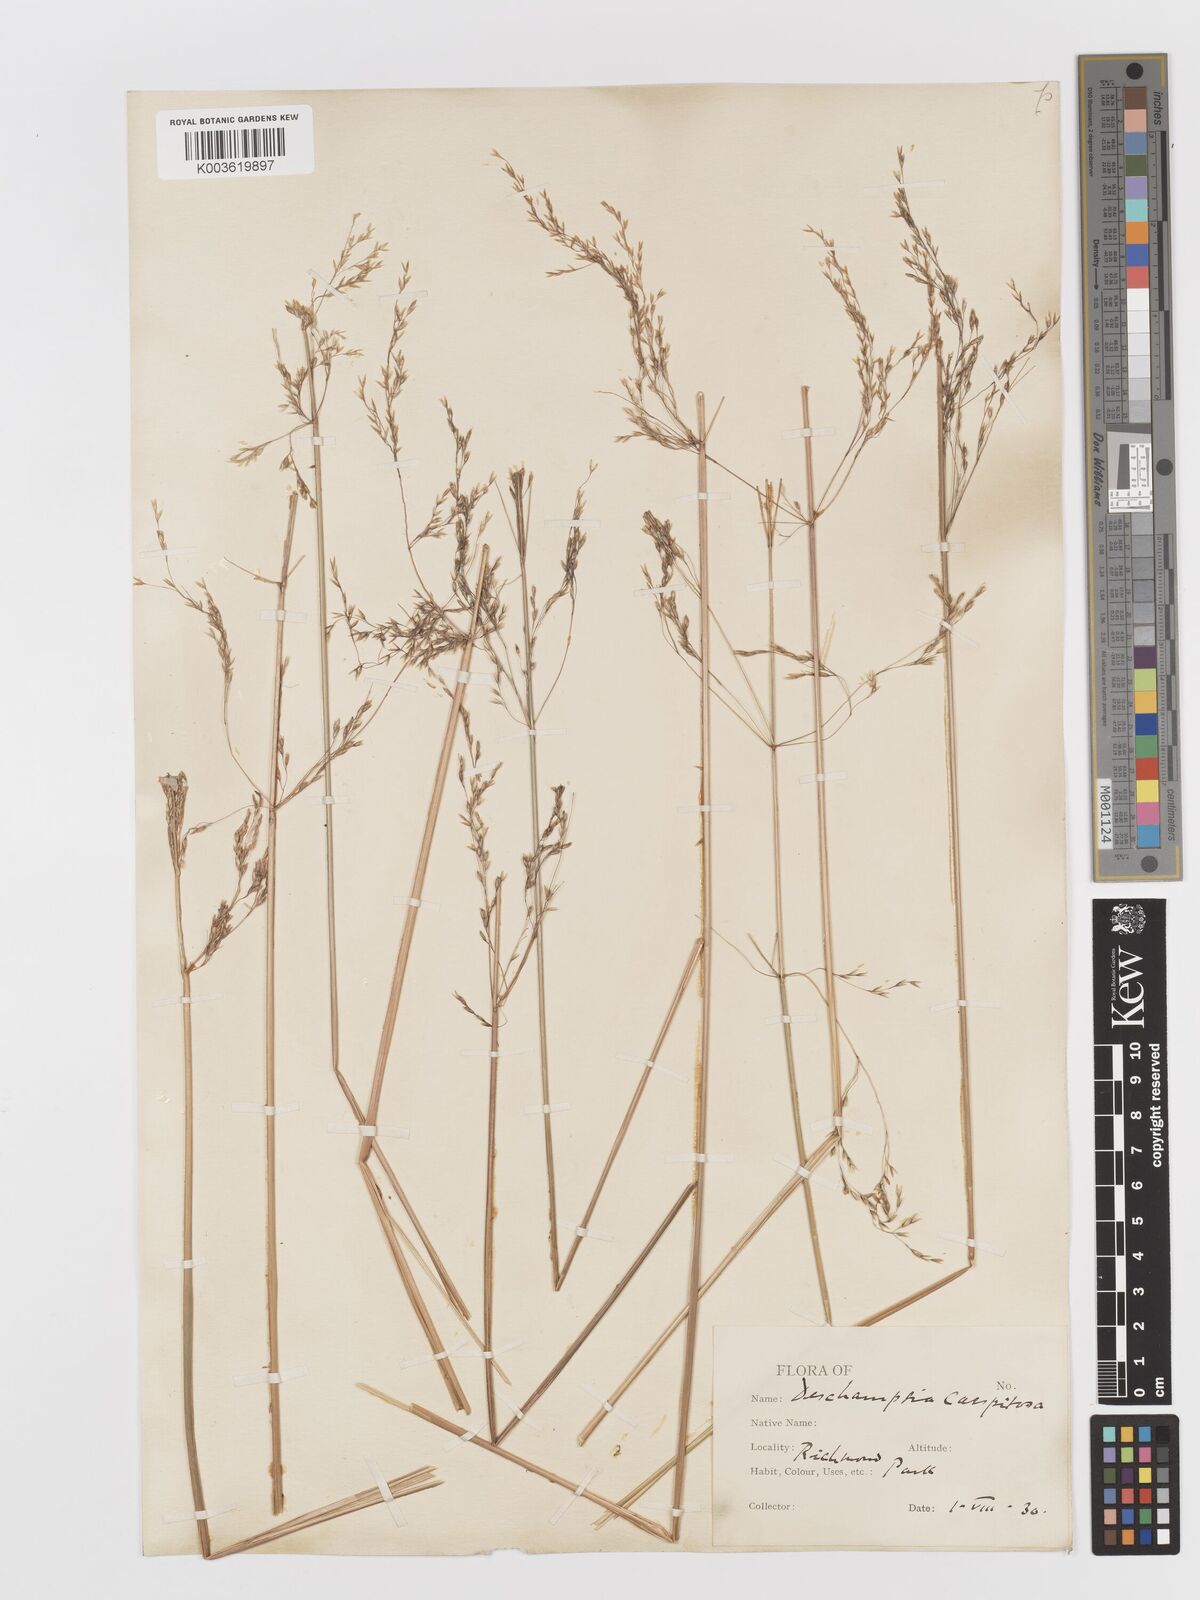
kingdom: Plantae
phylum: Tracheophyta
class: Liliopsida
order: Poales
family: Poaceae
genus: Deschampsia
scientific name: Deschampsia
